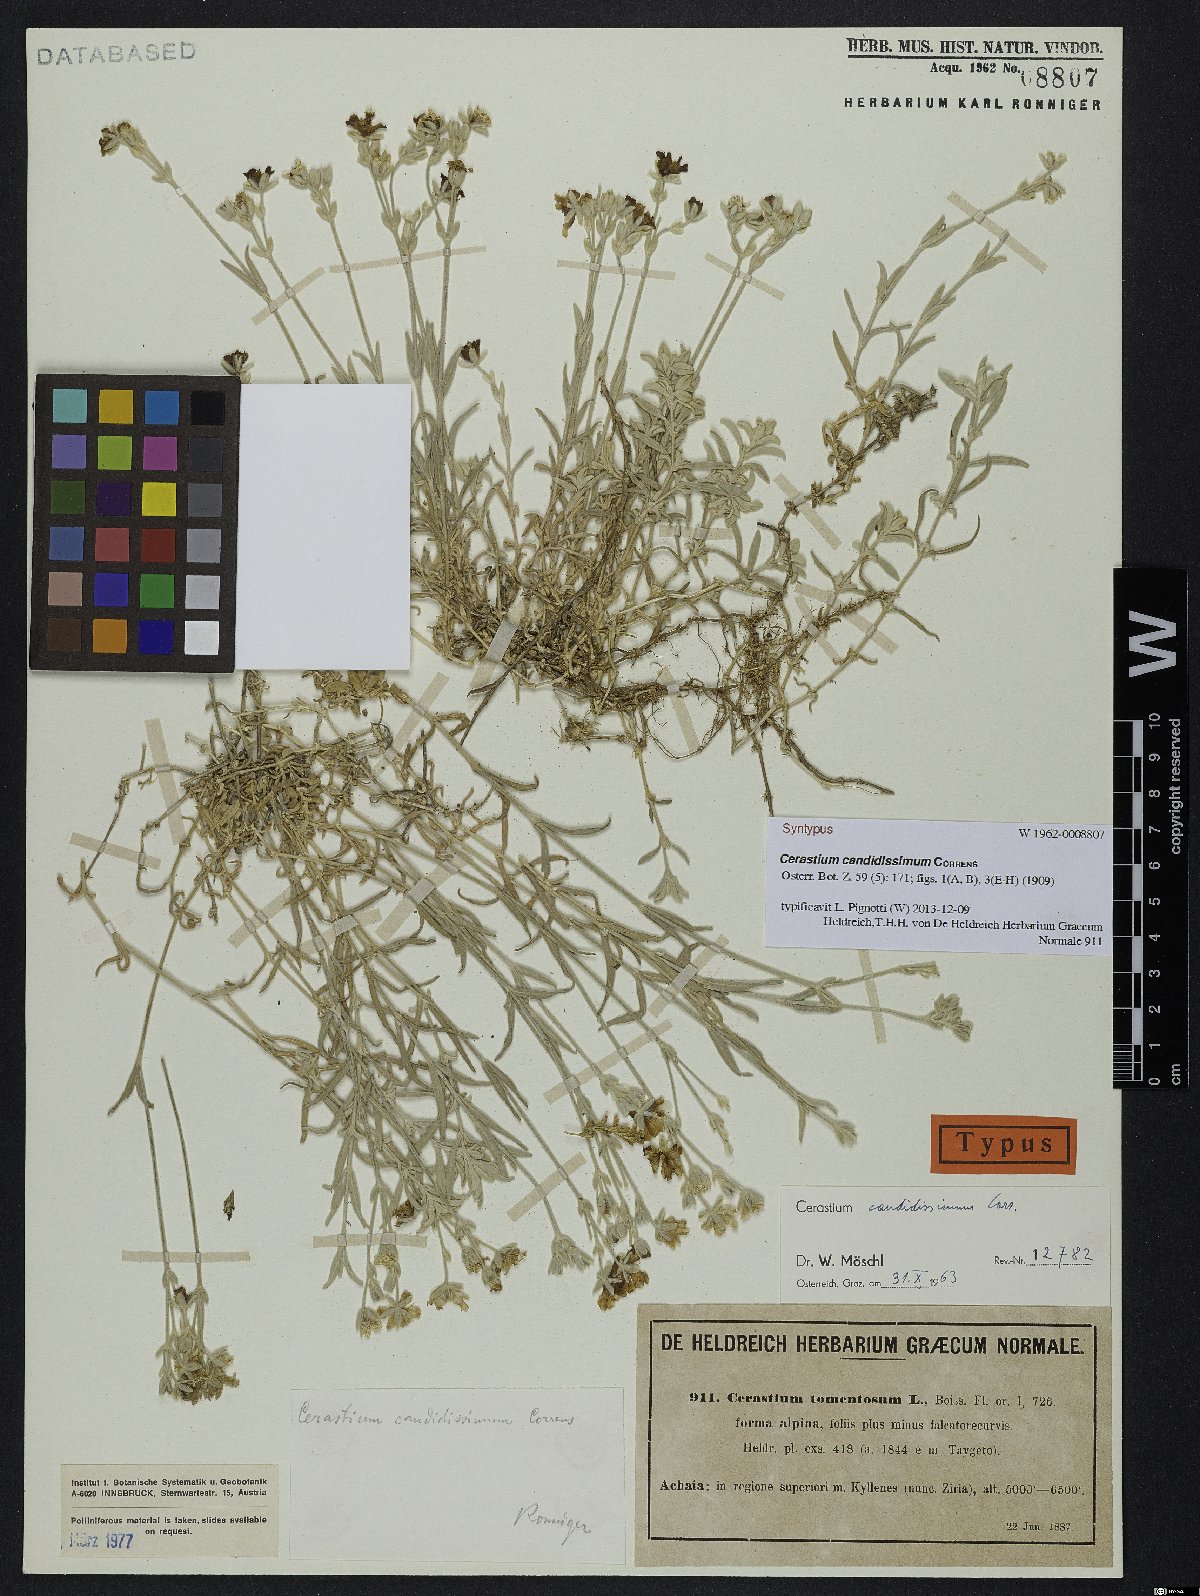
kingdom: Plantae
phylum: Tracheophyta
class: Magnoliopsida
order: Caryophyllales
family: Caryophyllaceae
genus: Cerastium
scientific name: Cerastium candidissimum
